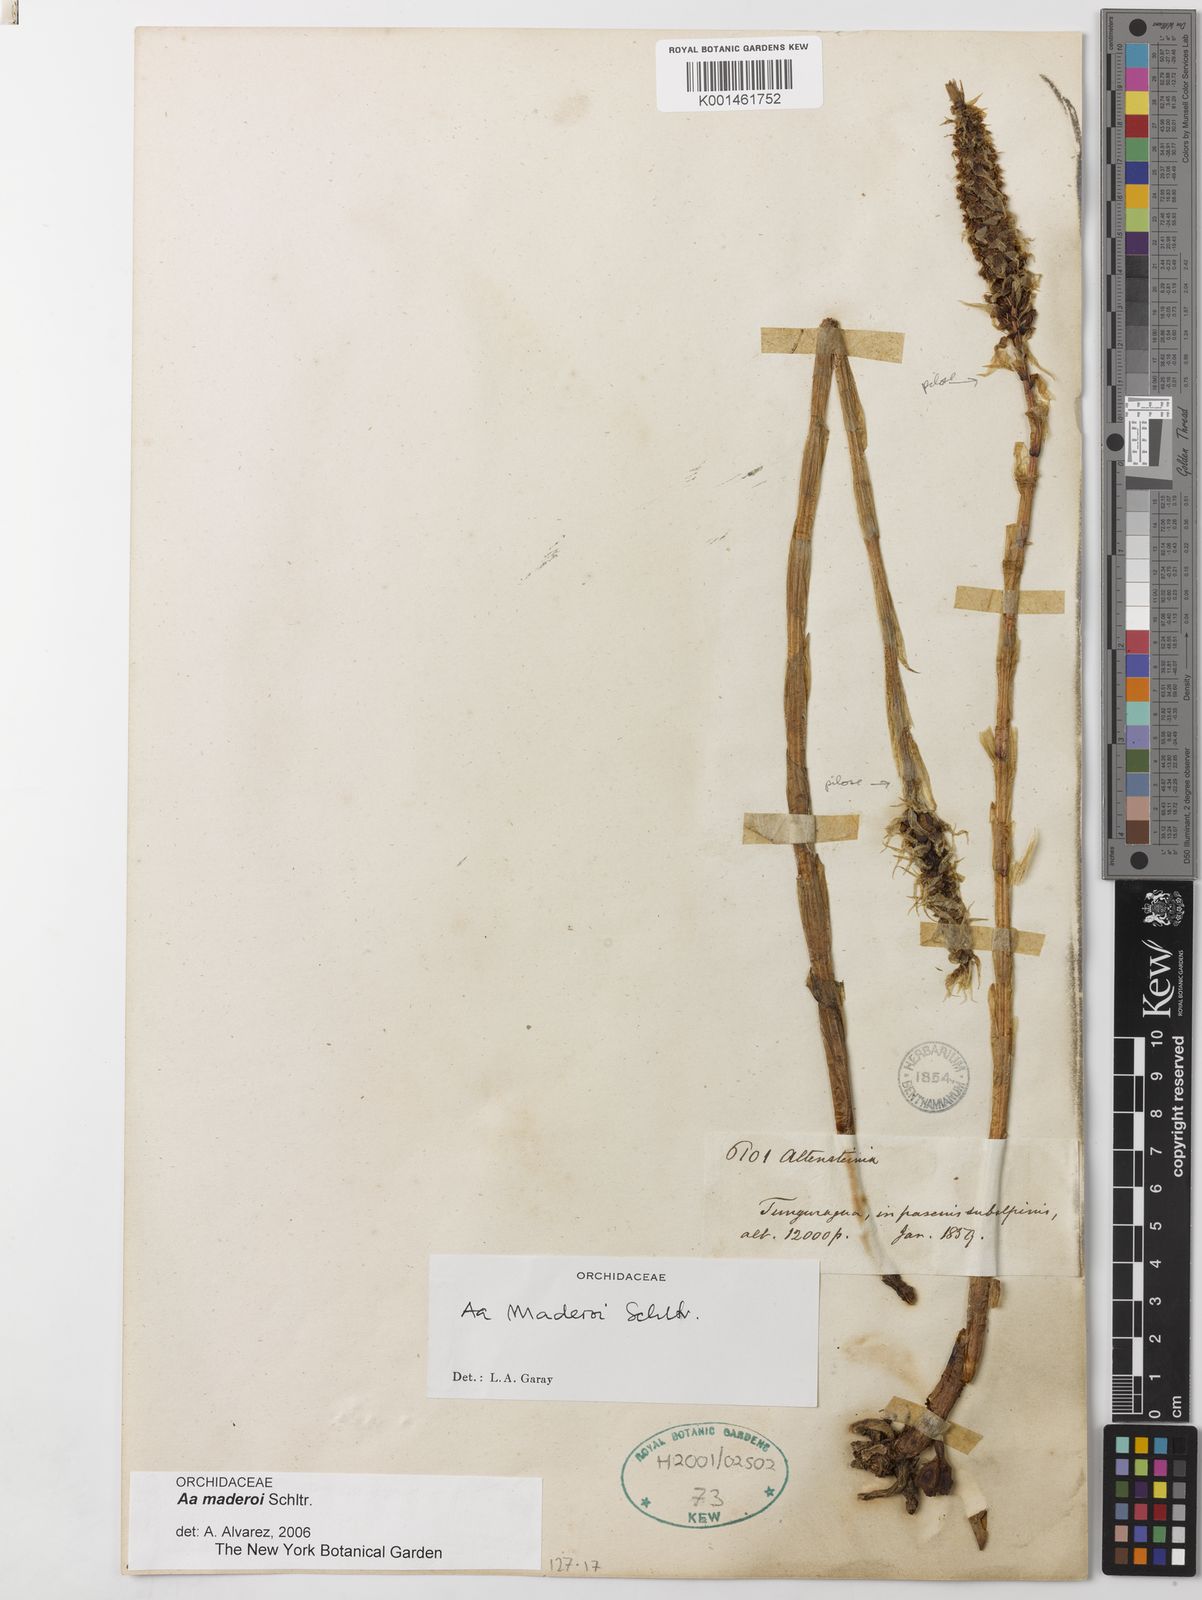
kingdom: Plantae
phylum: Tracheophyta
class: Liliopsida
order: Asparagales
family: Orchidaceae
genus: Aa
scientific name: Aa maderoi
